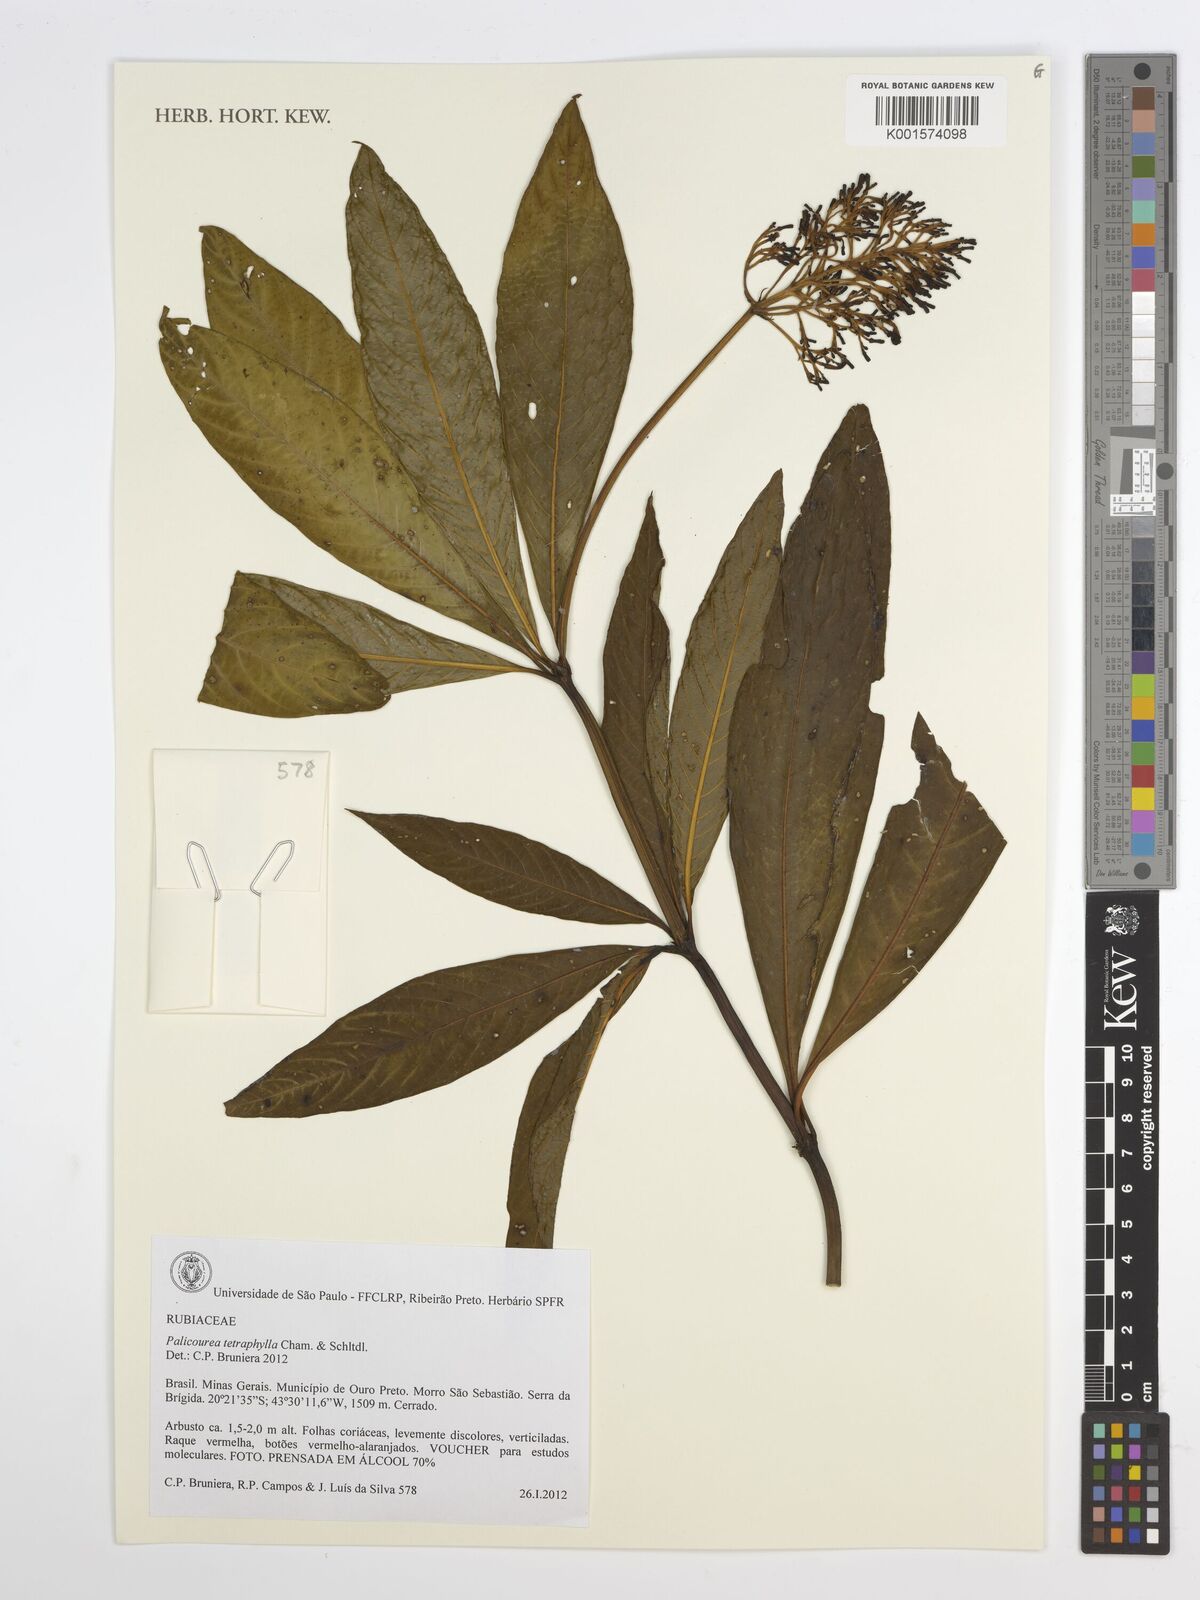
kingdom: Plantae
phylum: Tracheophyta
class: Magnoliopsida
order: Gentianales
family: Rubiaceae
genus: Palicourea
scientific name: Palicourea tetraphylla
